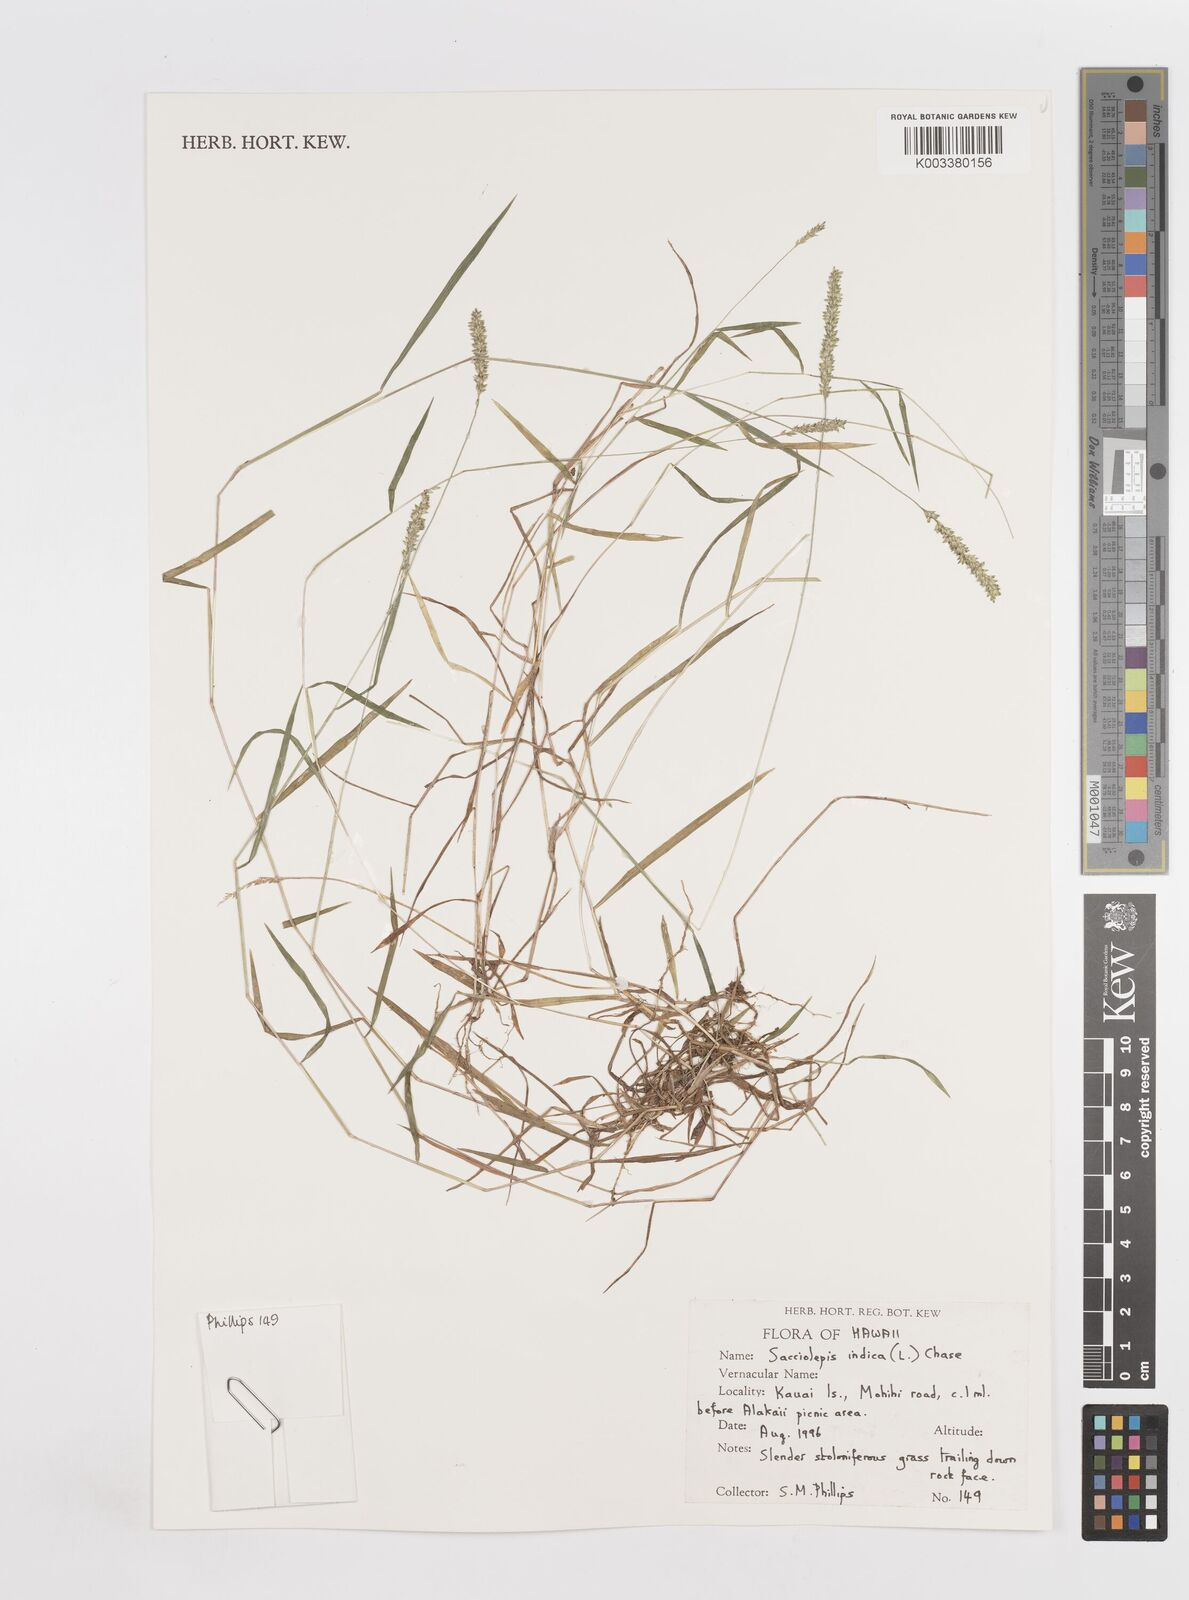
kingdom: Plantae
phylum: Tracheophyta
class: Liliopsida
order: Poales
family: Poaceae
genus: Sacciolepis
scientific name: Sacciolepis indica
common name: Glenwoodgrass
